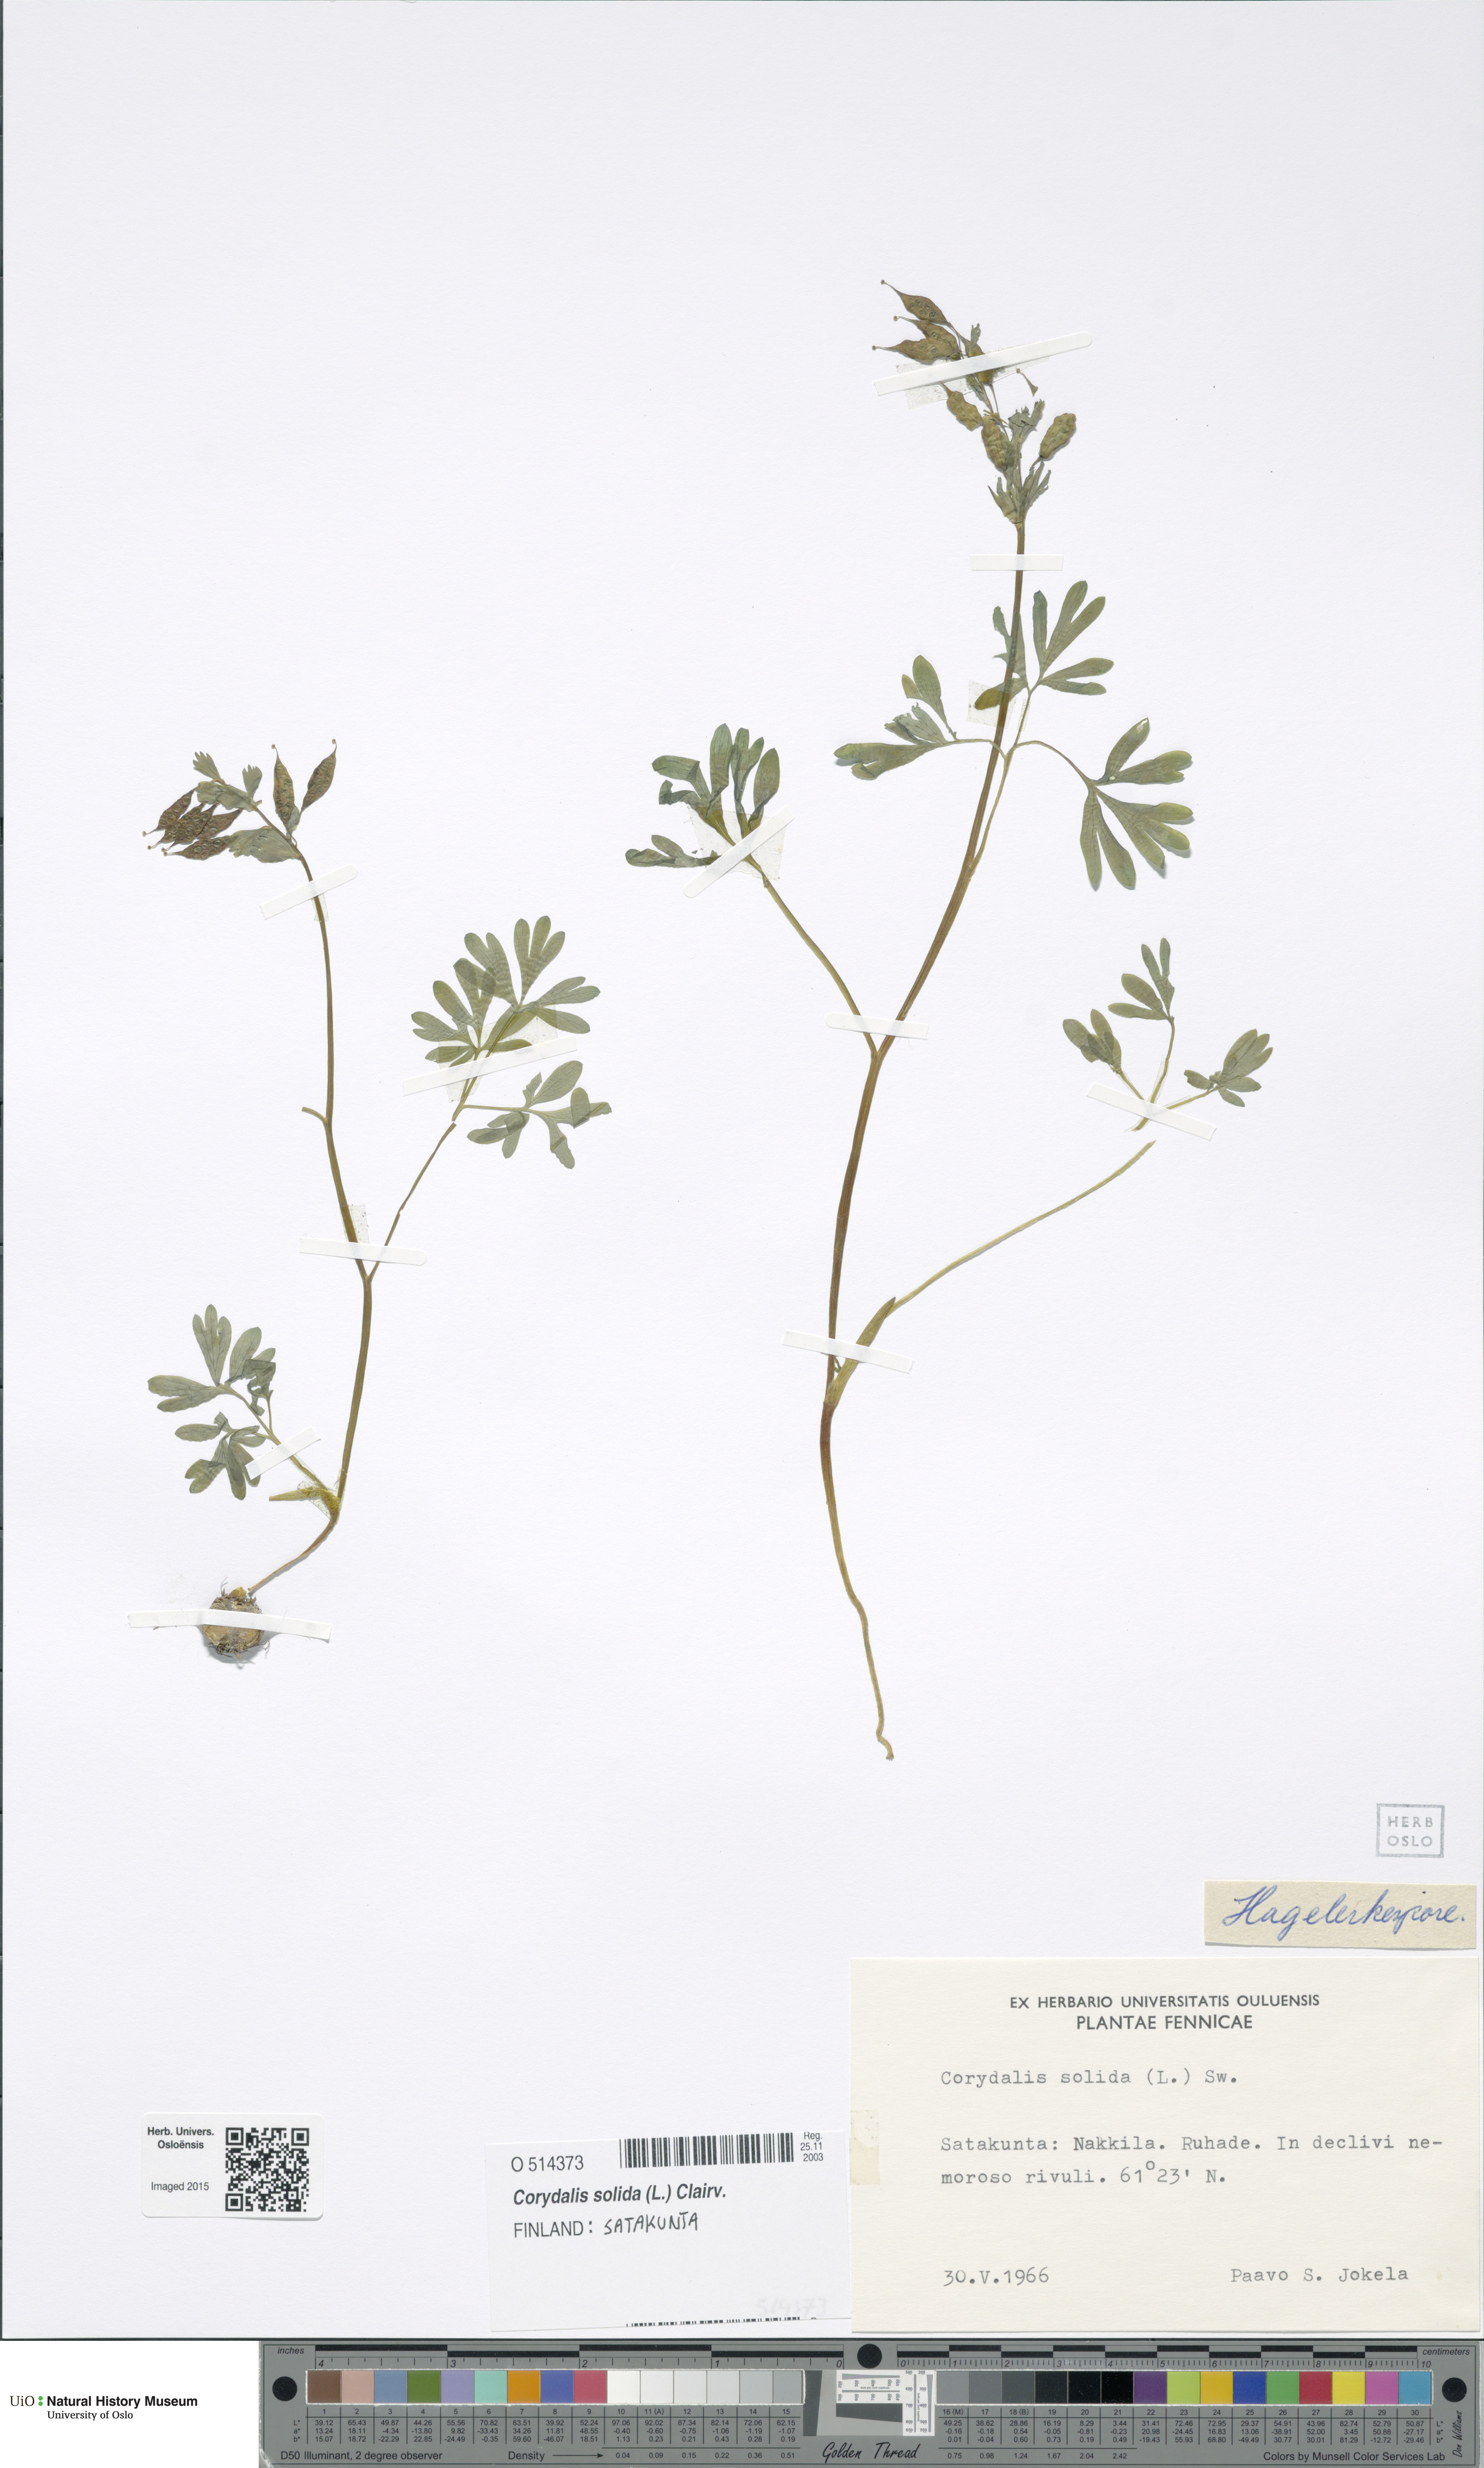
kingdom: Plantae
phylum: Tracheophyta
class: Magnoliopsida
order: Ranunculales
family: Papaveraceae
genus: Corydalis
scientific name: Corydalis solida
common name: Bird-in-a-bush
